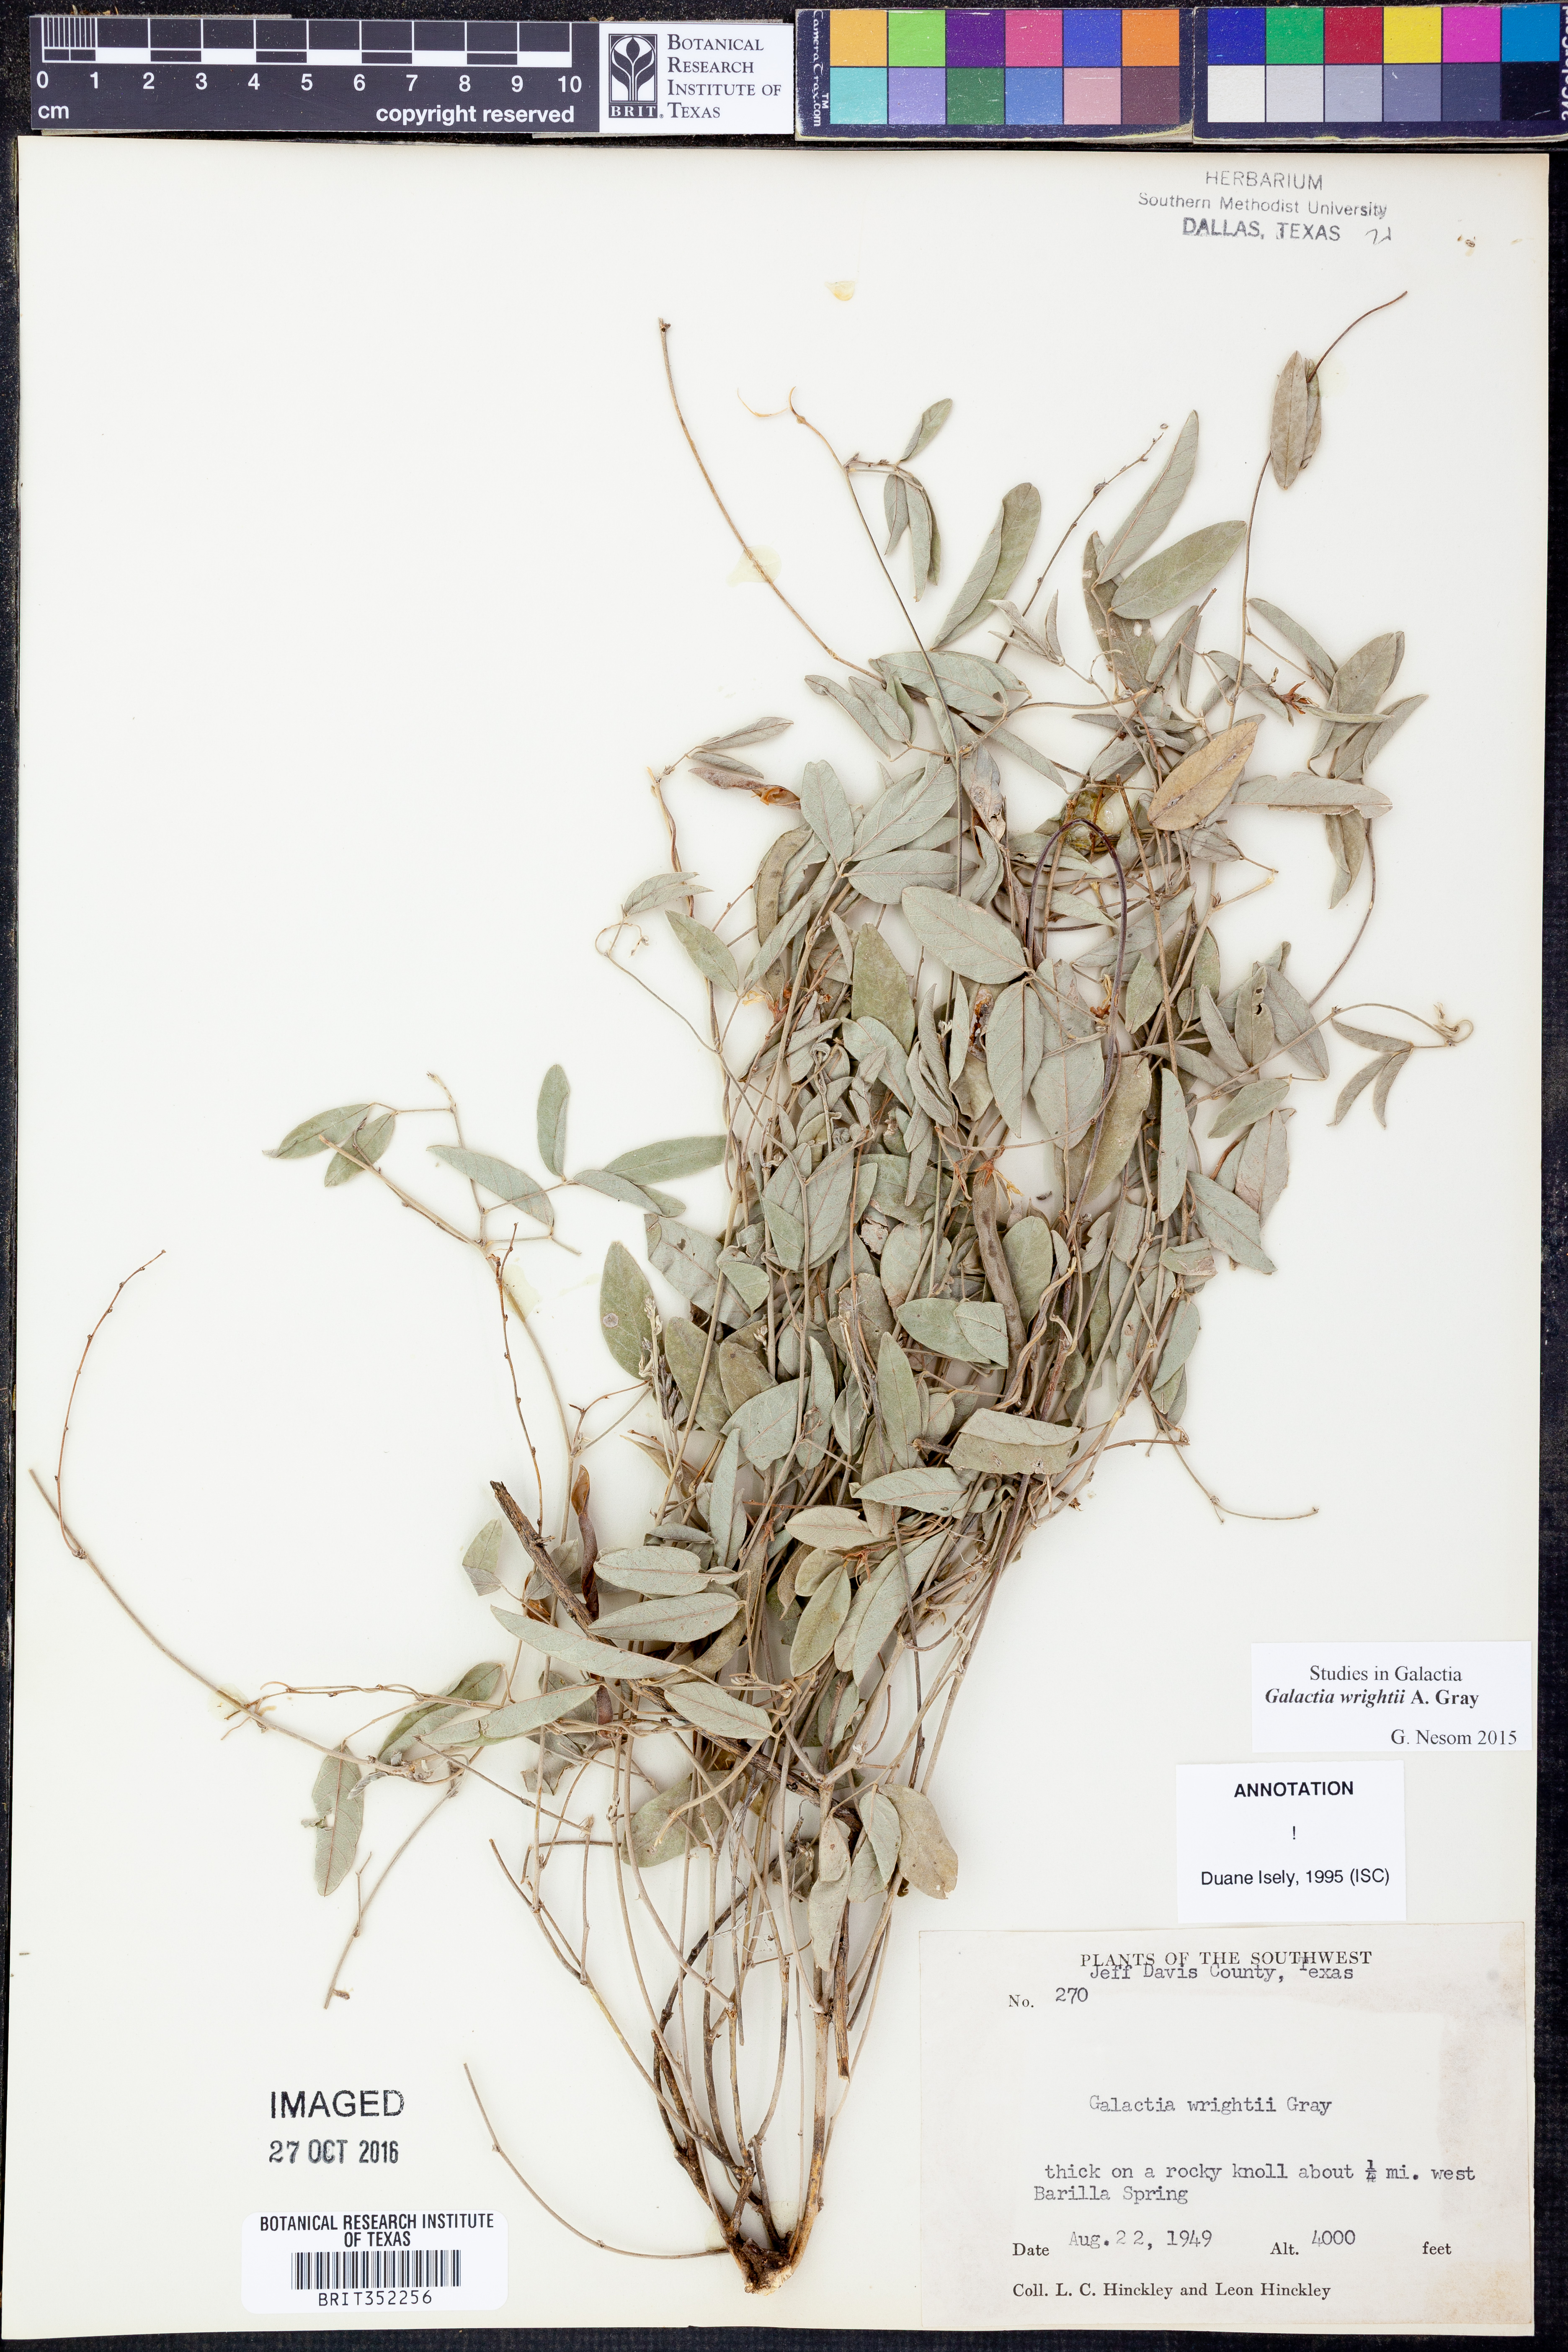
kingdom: Plantae
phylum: Tracheophyta
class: Magnoliopsida
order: Fabales
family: Fabaceae
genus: Galactia
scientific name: Galactia wrightii
